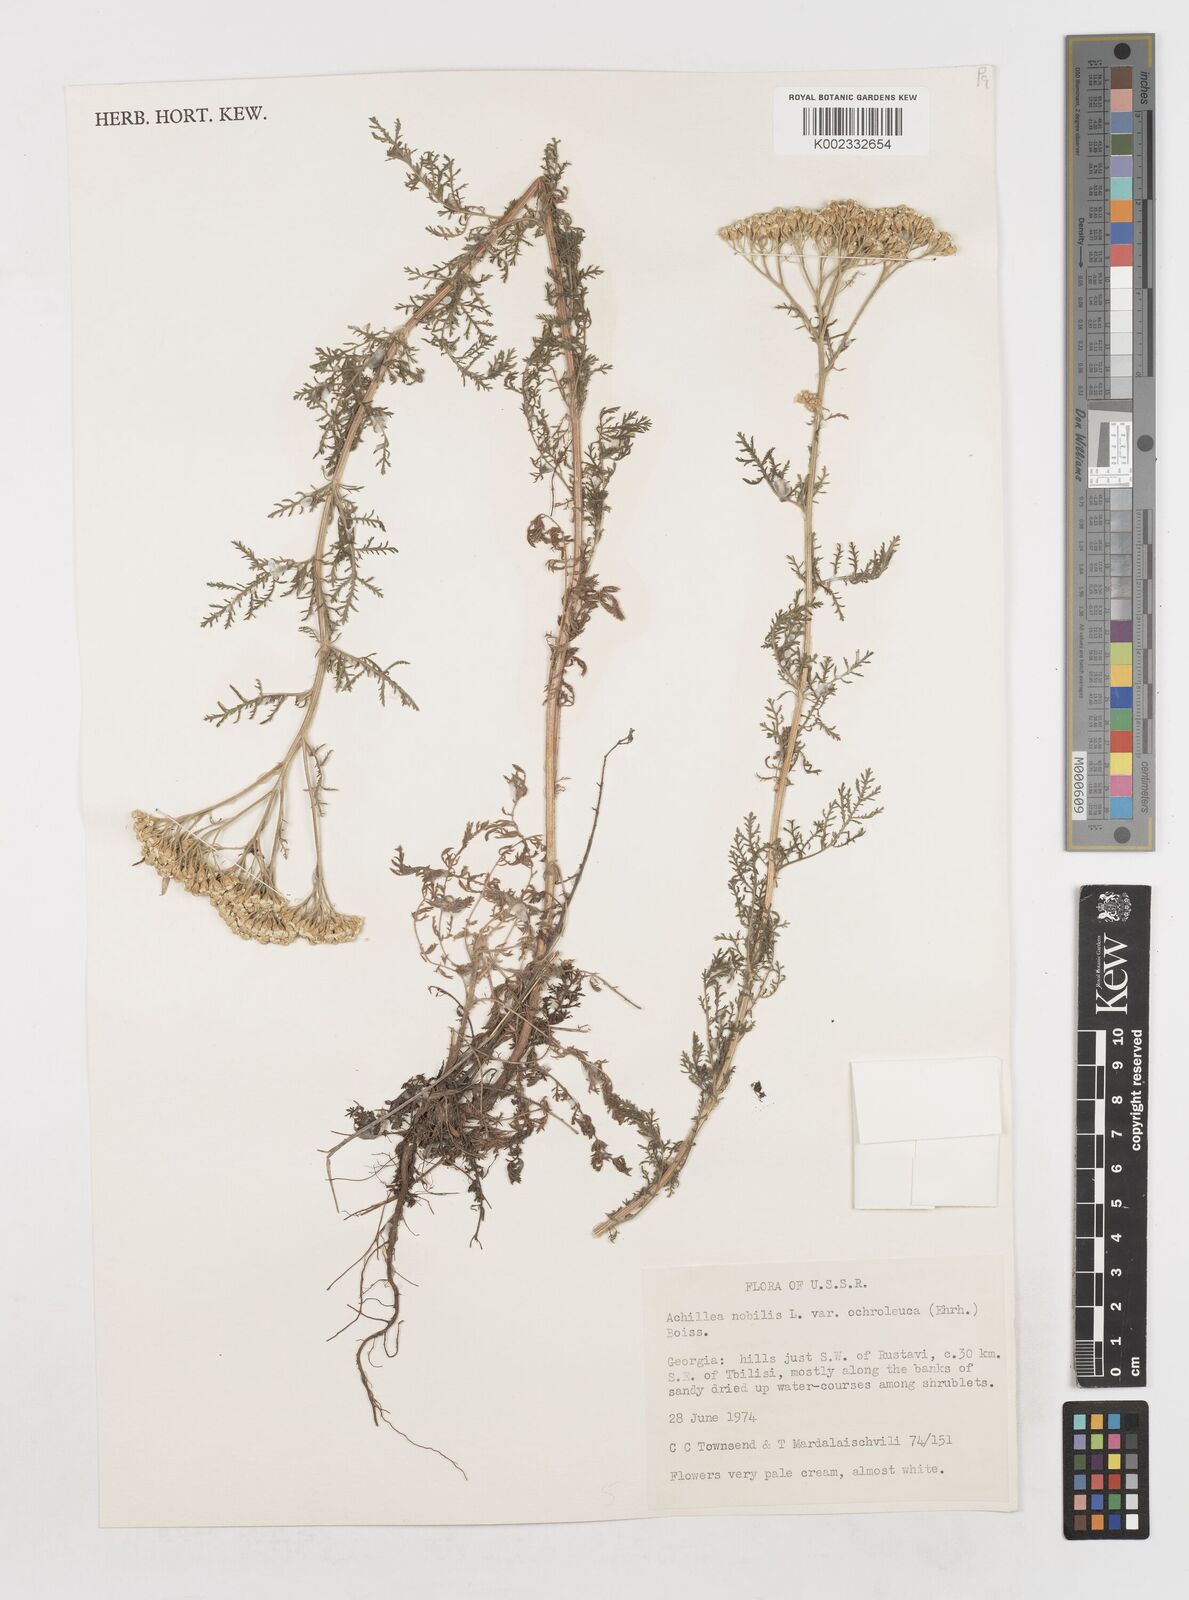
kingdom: Plantae
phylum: Tracheophyta
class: Magnoliopsida
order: Asterales
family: Asteraceae
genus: Achillea
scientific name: Achillea nobilis
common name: Noble yarrow
